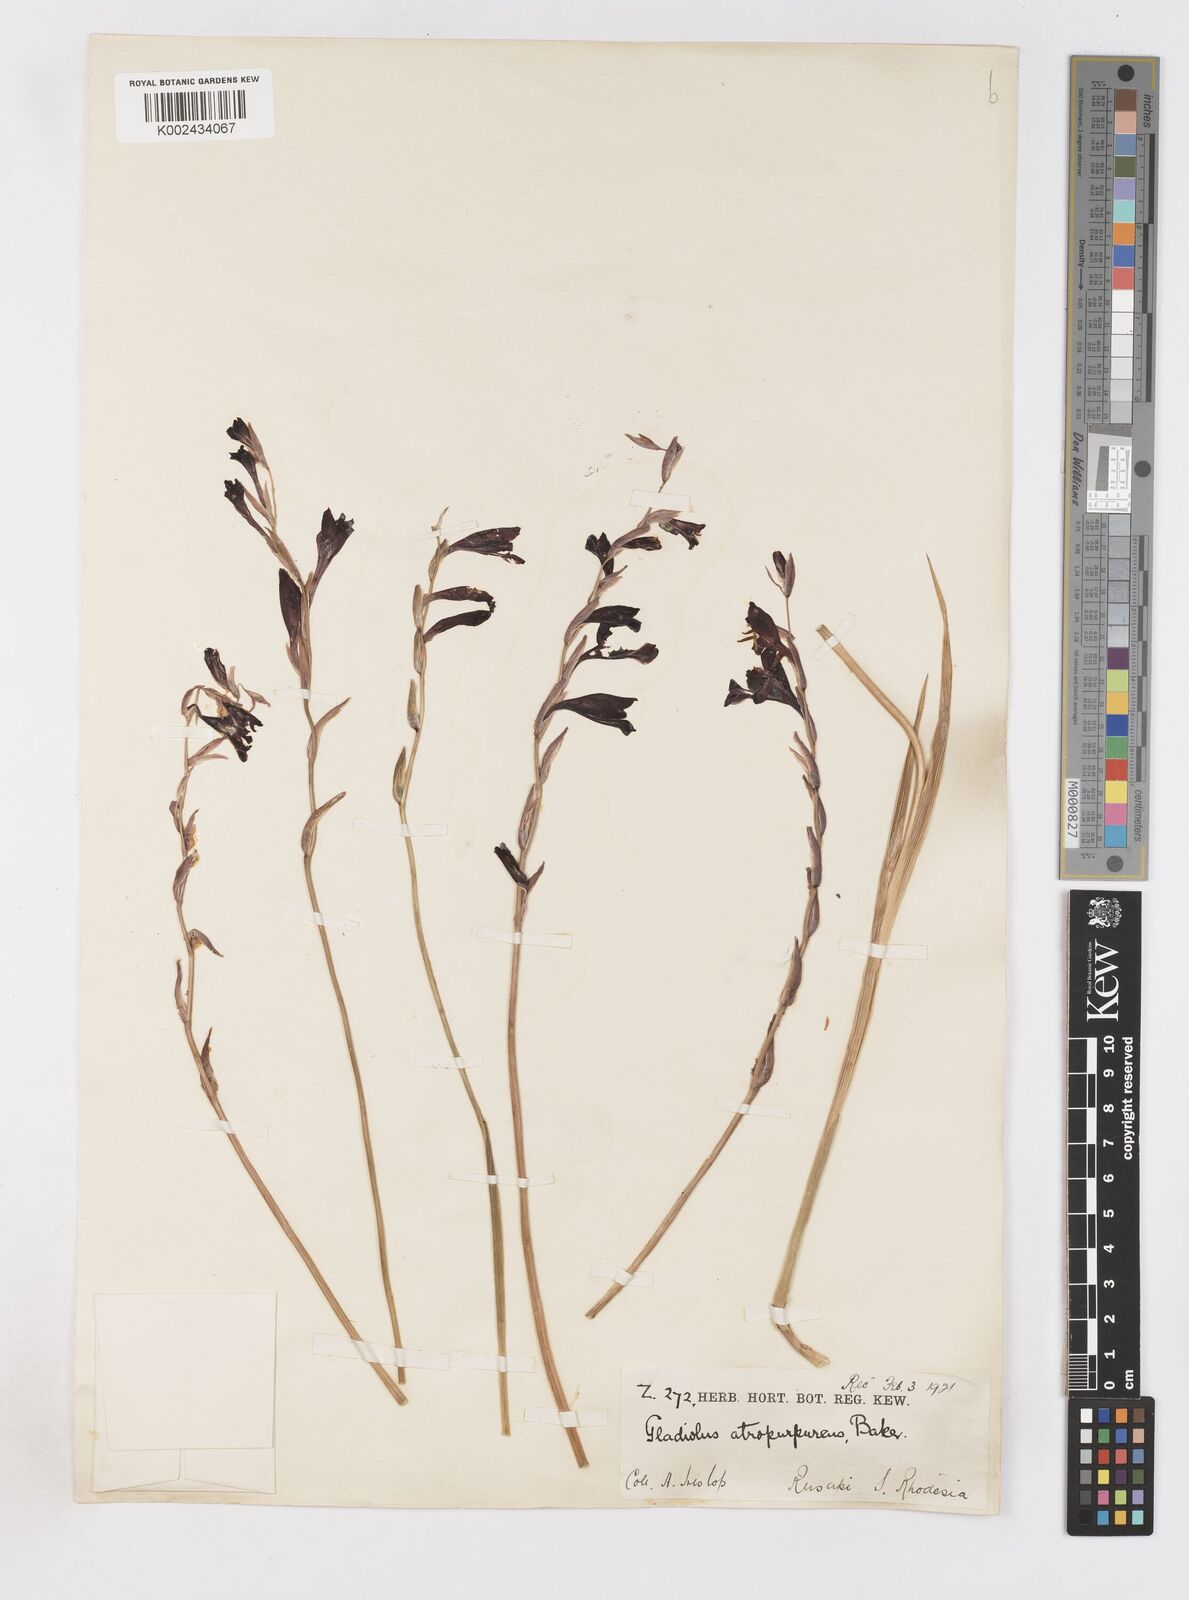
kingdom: Plantae
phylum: Tracheophyta
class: Liliopsida
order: Asparagales
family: Iridaceae
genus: Gladiolus
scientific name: Gladiolus atropurpureus
